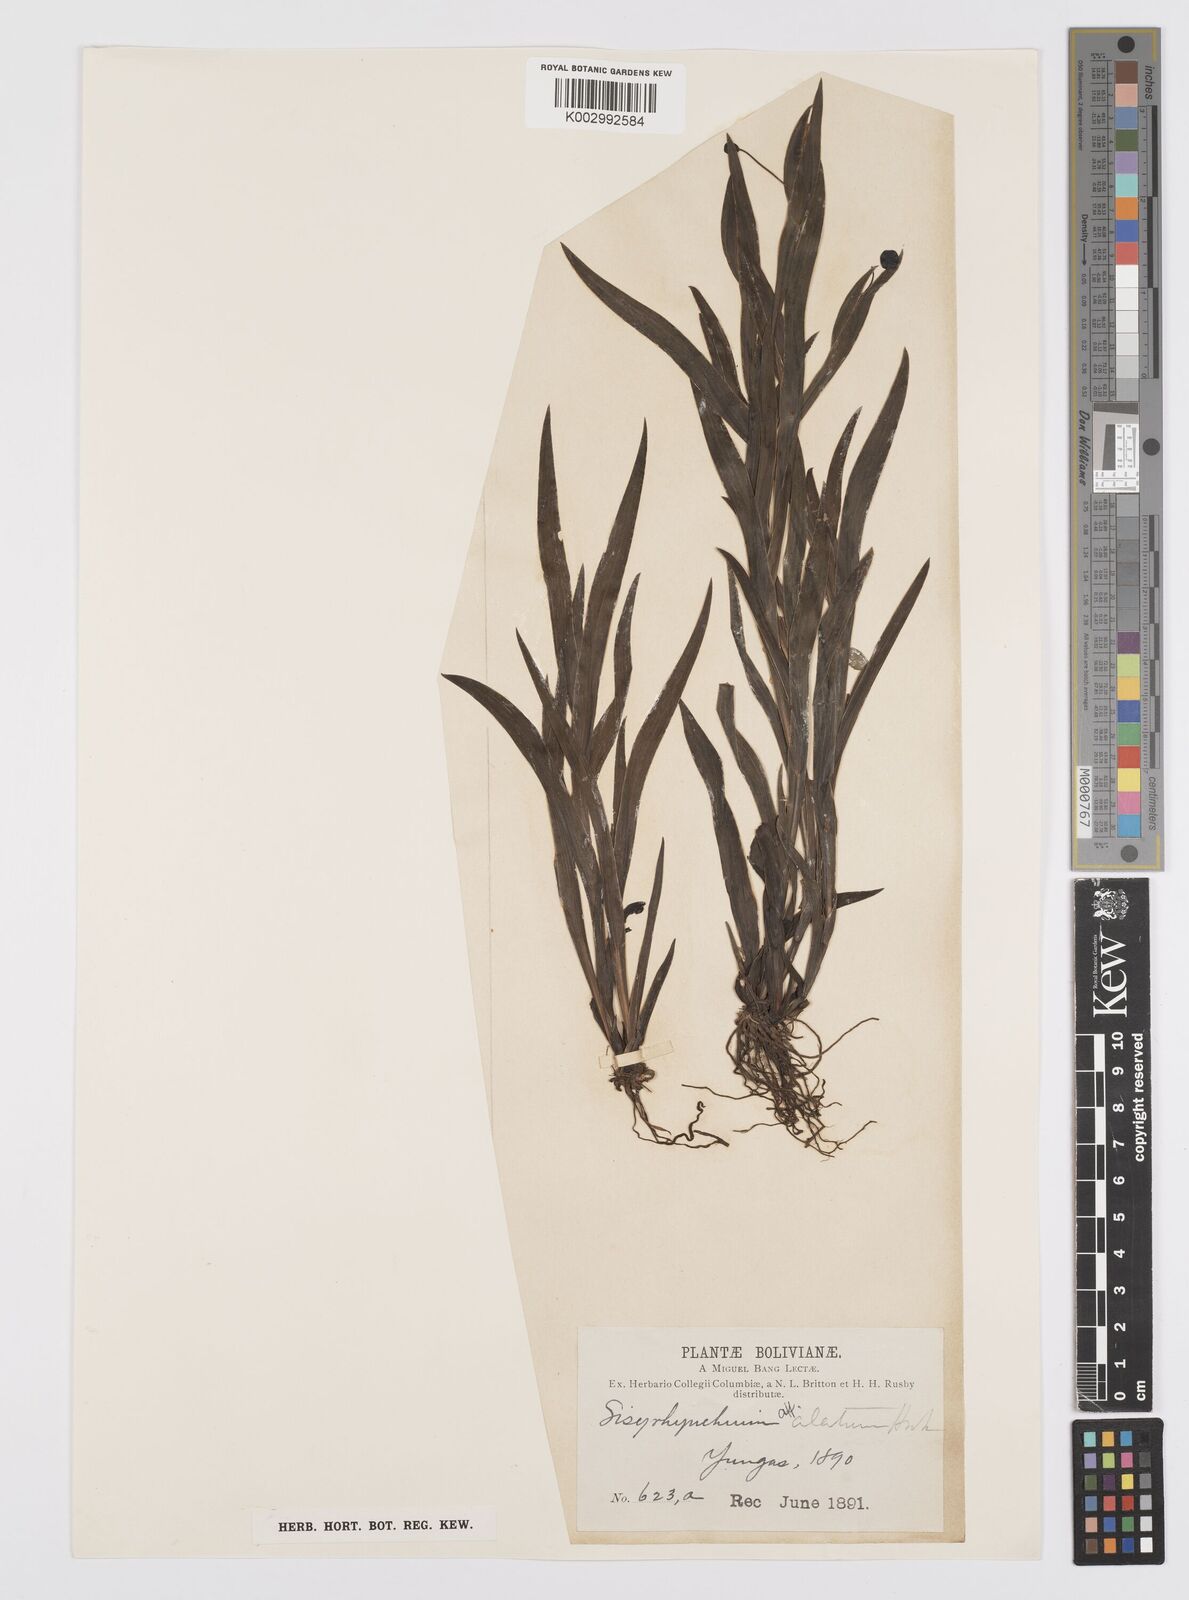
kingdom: Plantae
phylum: Tracheophyta
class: Liliopsida
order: Asparagales
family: Iridaceae
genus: Sisyrinchium
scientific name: Sisyrinchium vaginatum
